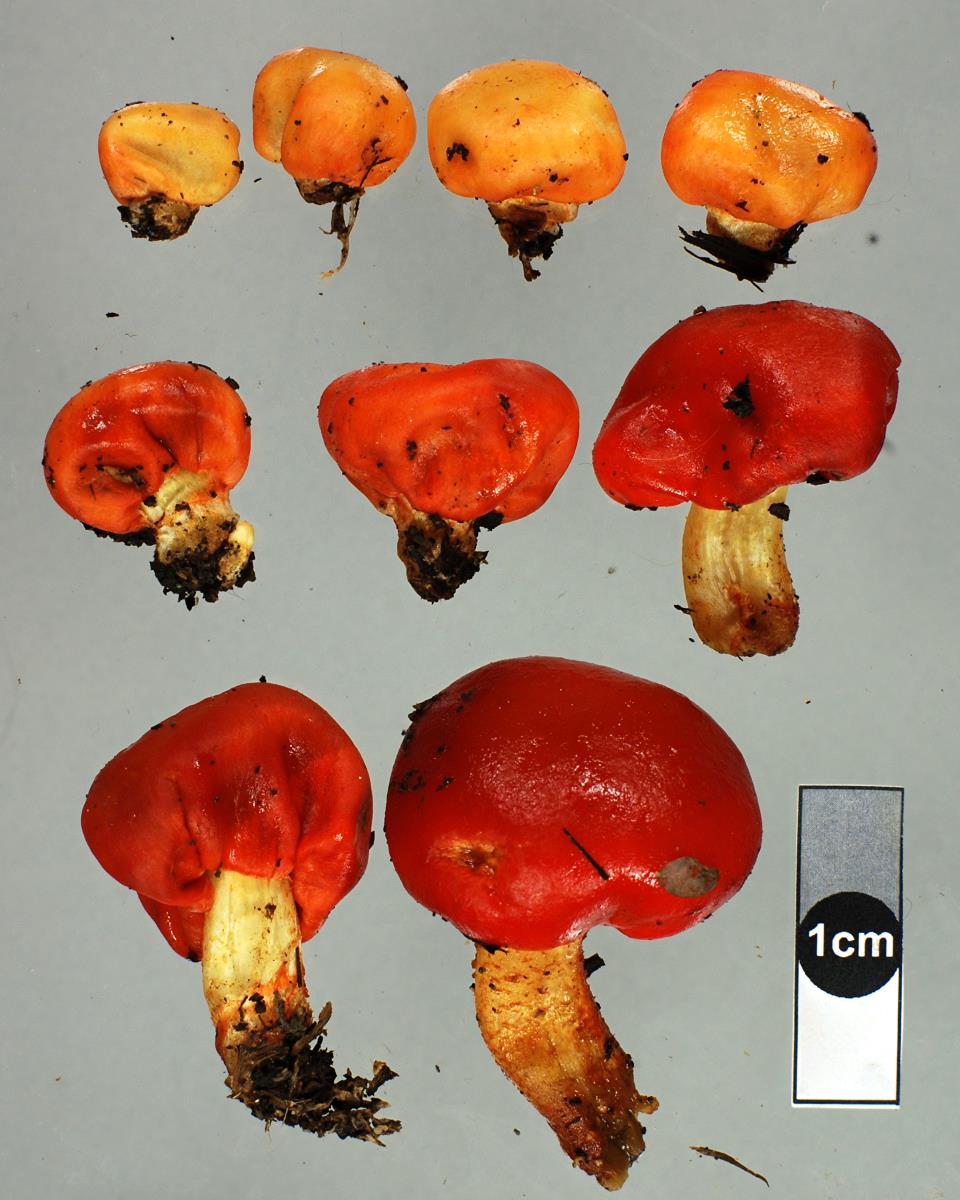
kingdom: Fungi
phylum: Basidiomycota
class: Agaricomycetes
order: Agaricales
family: Strophariaceae
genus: Leratiomyces
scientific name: Leratiomyces erythrocephalus
